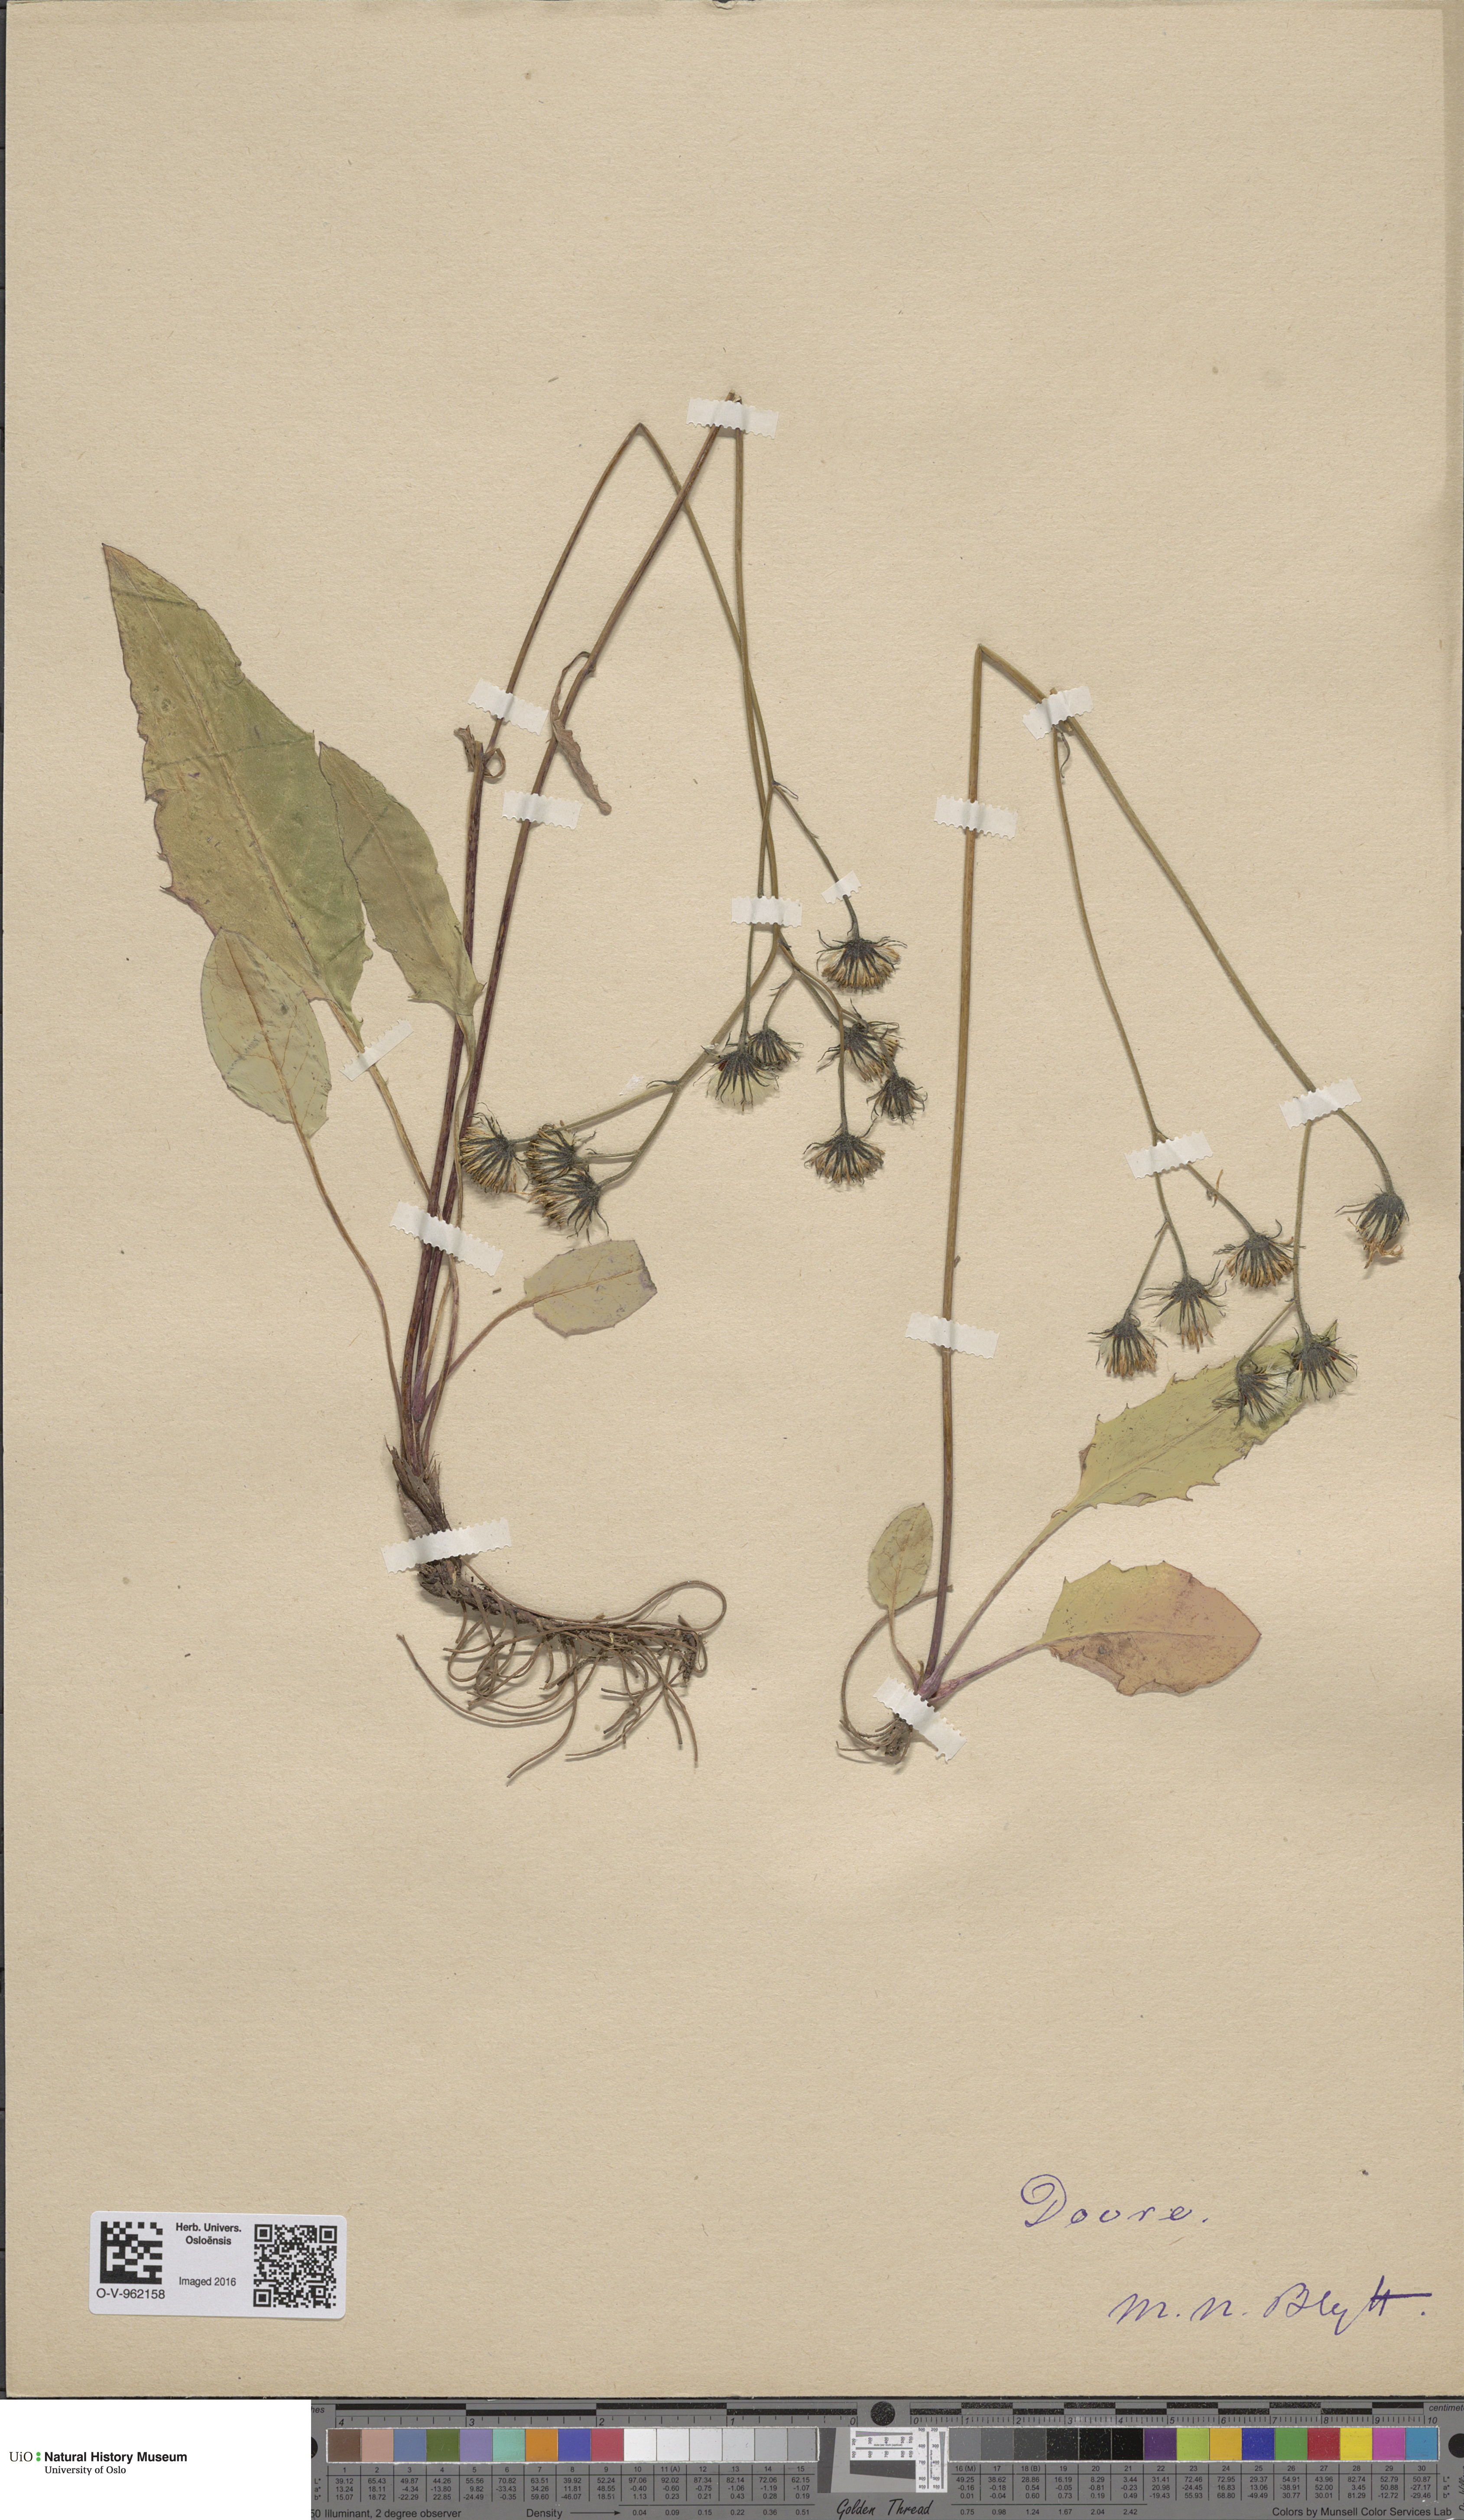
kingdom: Plantae
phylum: Tracheophyta
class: Magnoliopsida
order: Asterales
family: Asteraceae
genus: Hieracium
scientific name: Hieracium
